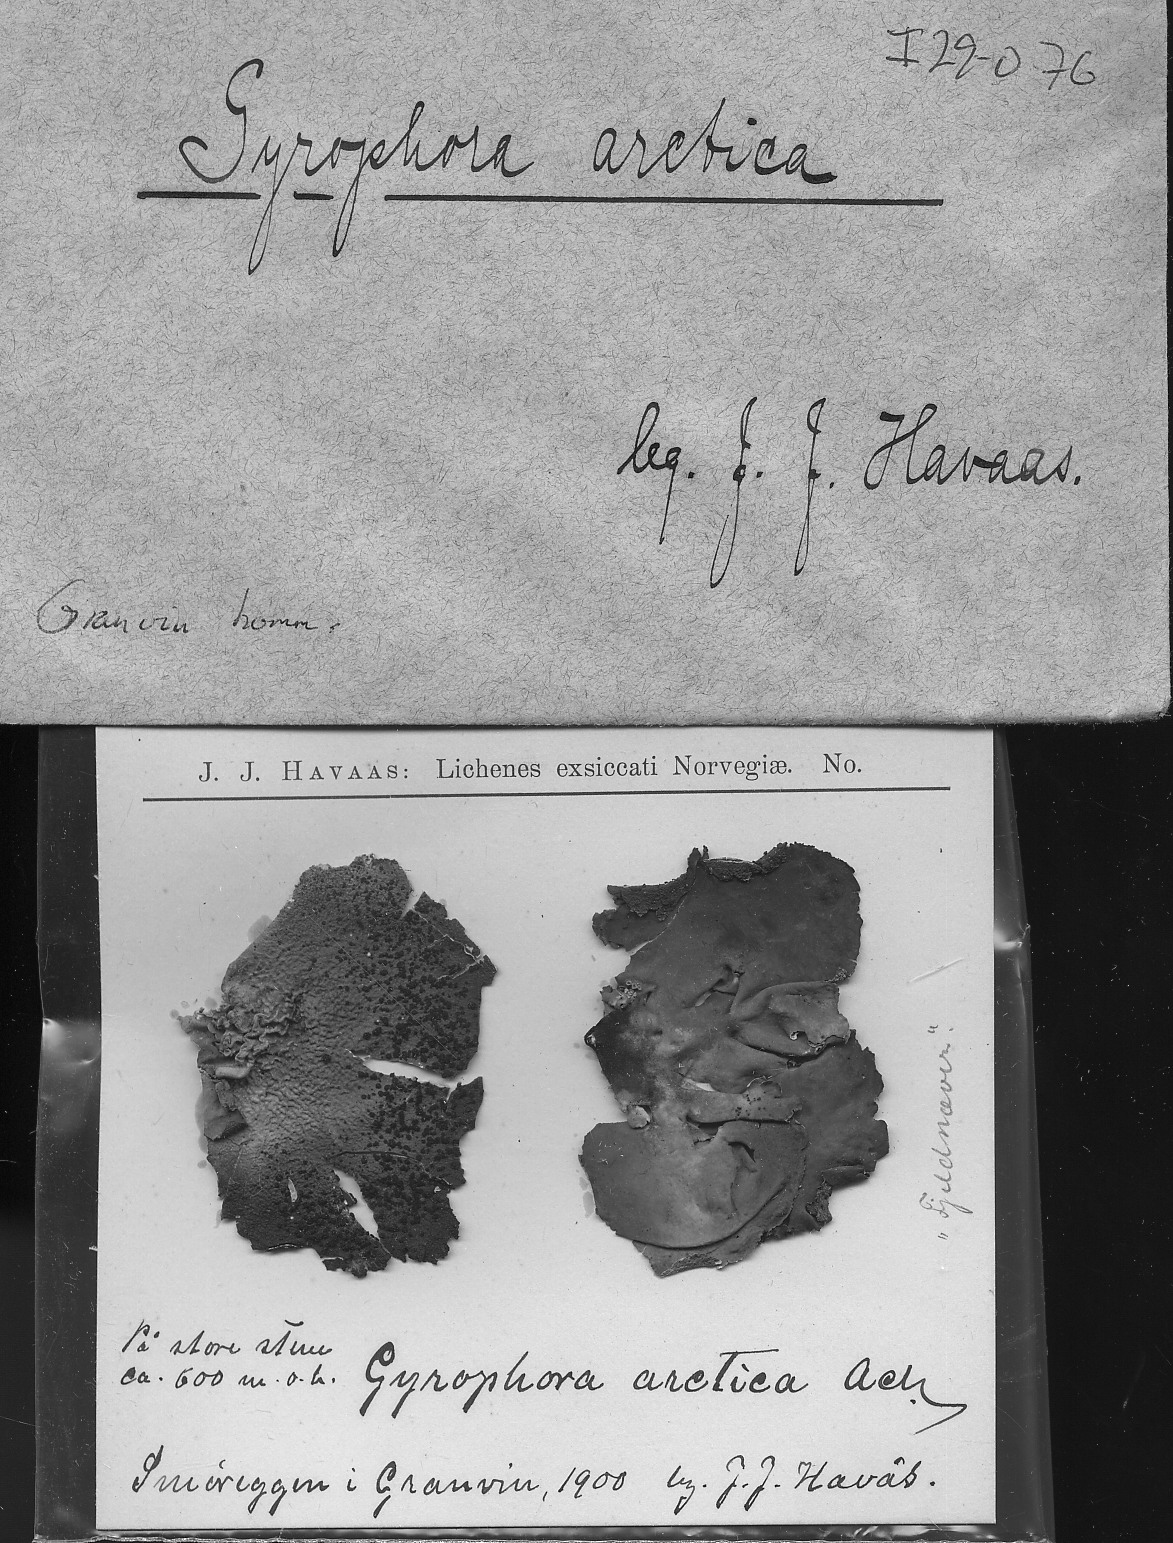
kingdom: Fungi
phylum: Ascomycota
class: Lecanoromycetes
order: Umbilicariales
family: Umbilicariaceae
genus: Umbilicaria
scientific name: Umbilicaria arctica
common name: Arctic rocktripe lichen
